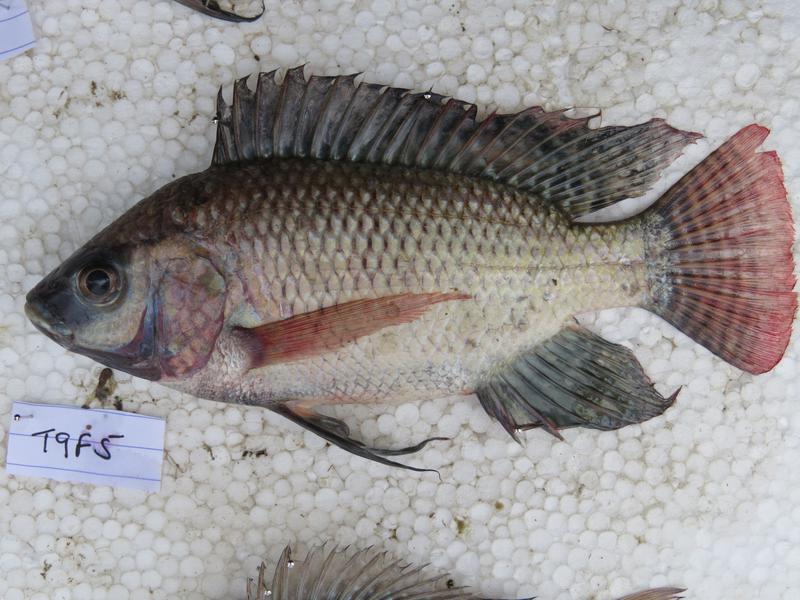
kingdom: Animalia
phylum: Chordata
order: Perciformes
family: Cichlidae
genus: Oreochromis
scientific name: Oreochromis niloticus
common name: Nile tilapia
